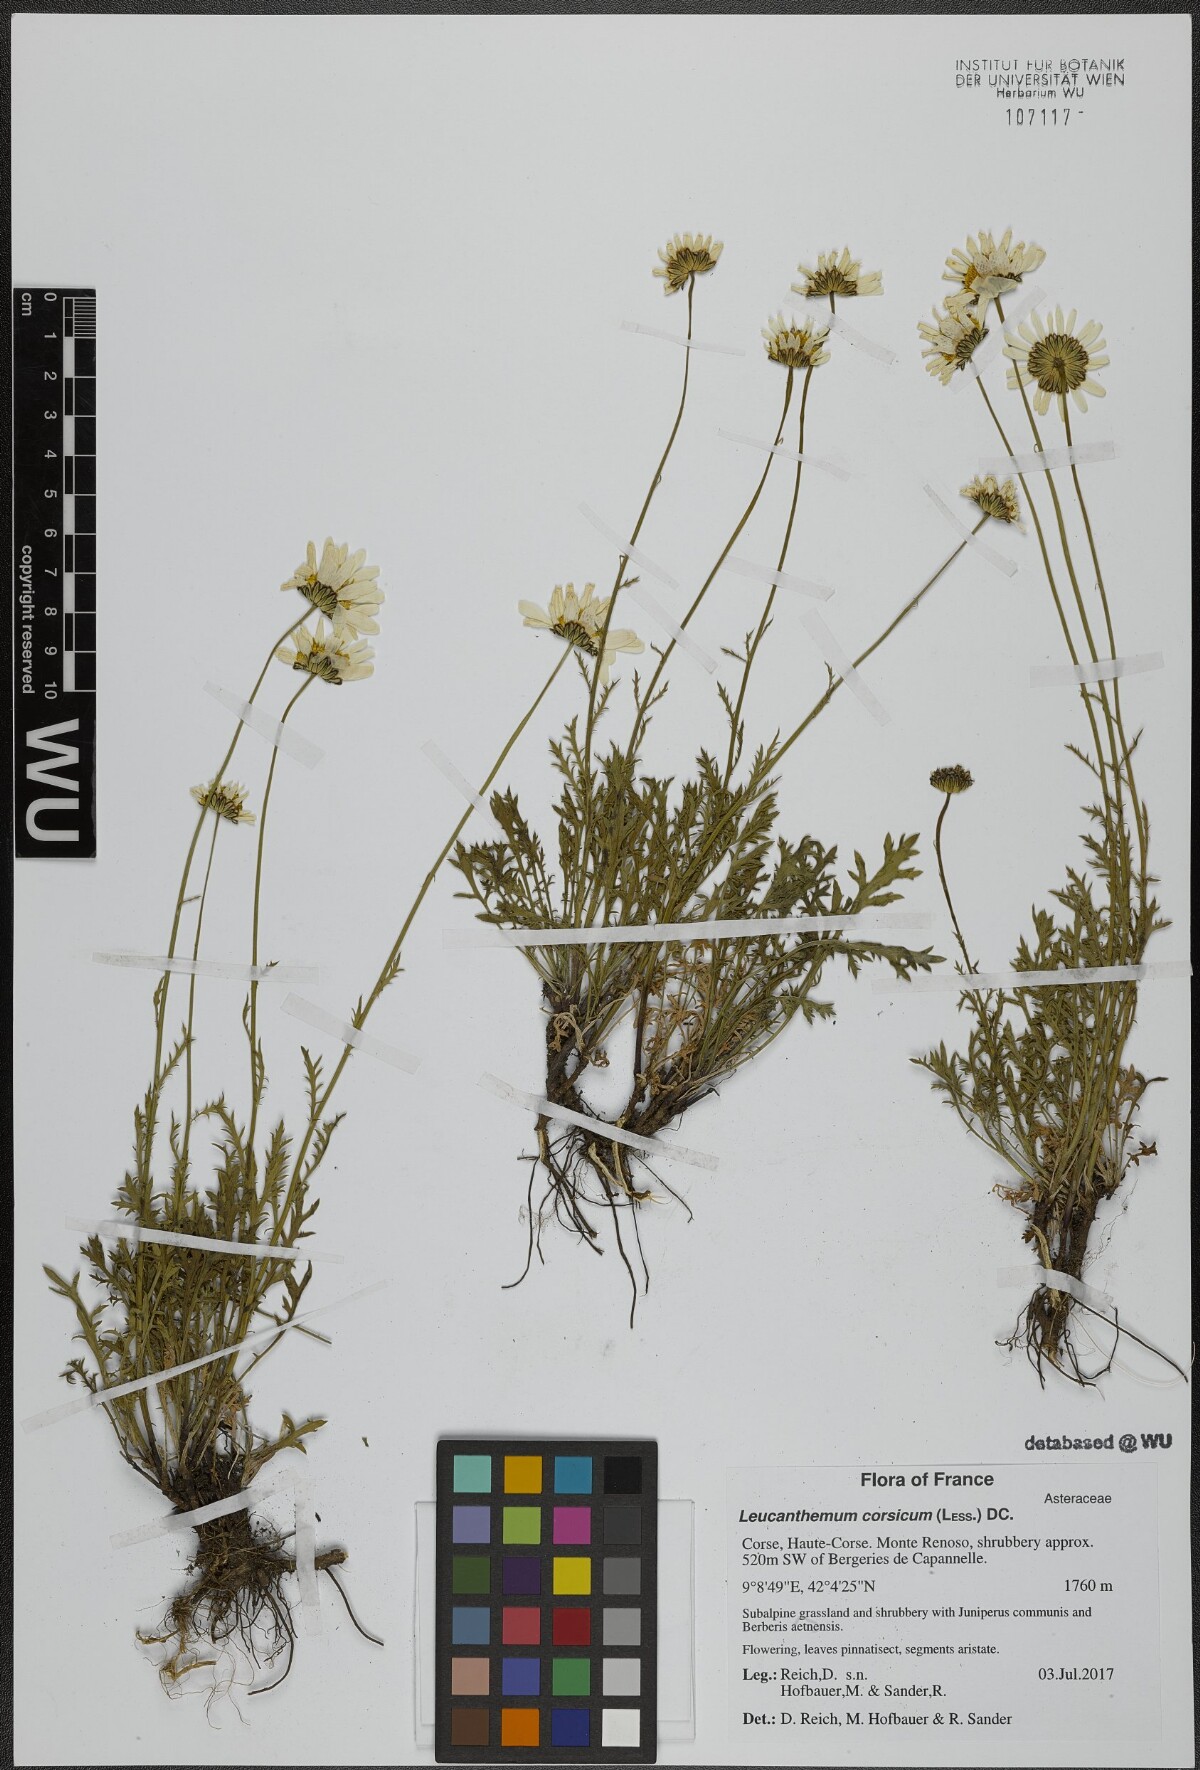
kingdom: Plantae
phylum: Tracheophyta
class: Magnoliopsida
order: Asterales
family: Asteraceae
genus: Leucanthemum
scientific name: Leucanthemum corsicum
